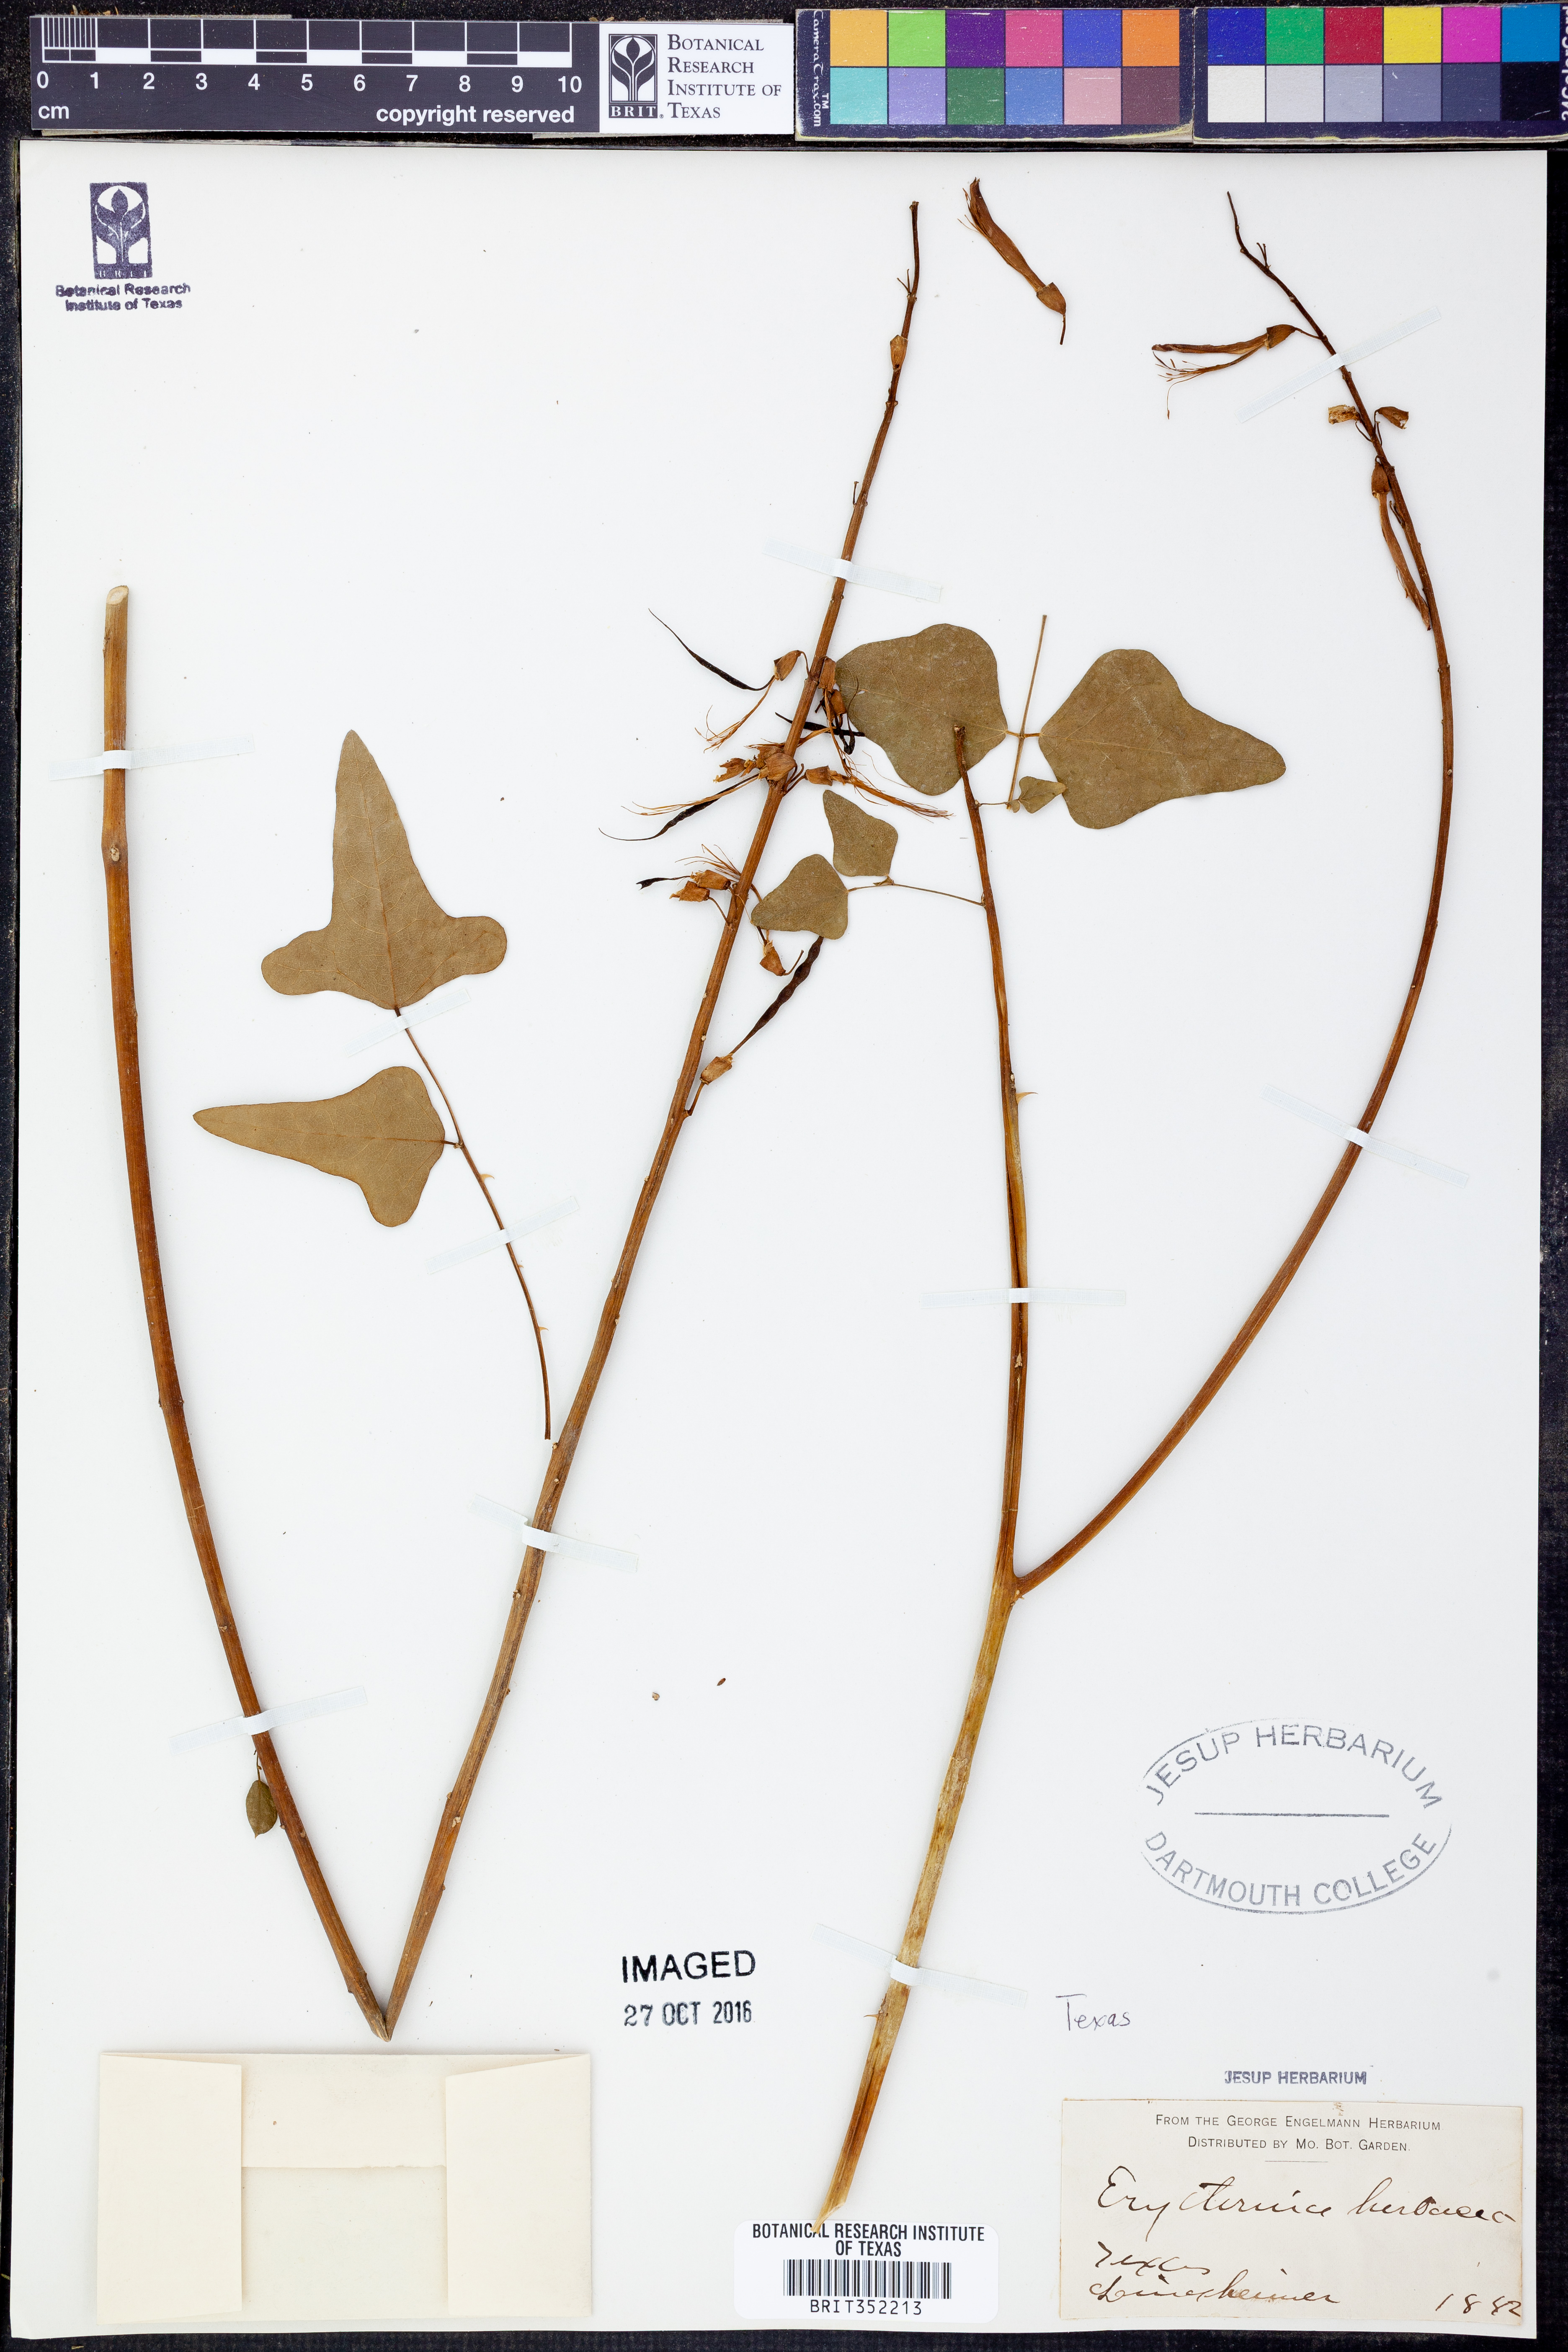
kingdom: Plantae
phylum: Tracheophyta
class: Magnoliopsida
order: Fabales
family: Fabaceae
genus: Erythrina
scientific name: Erythrina herbacea
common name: Coral-bean
